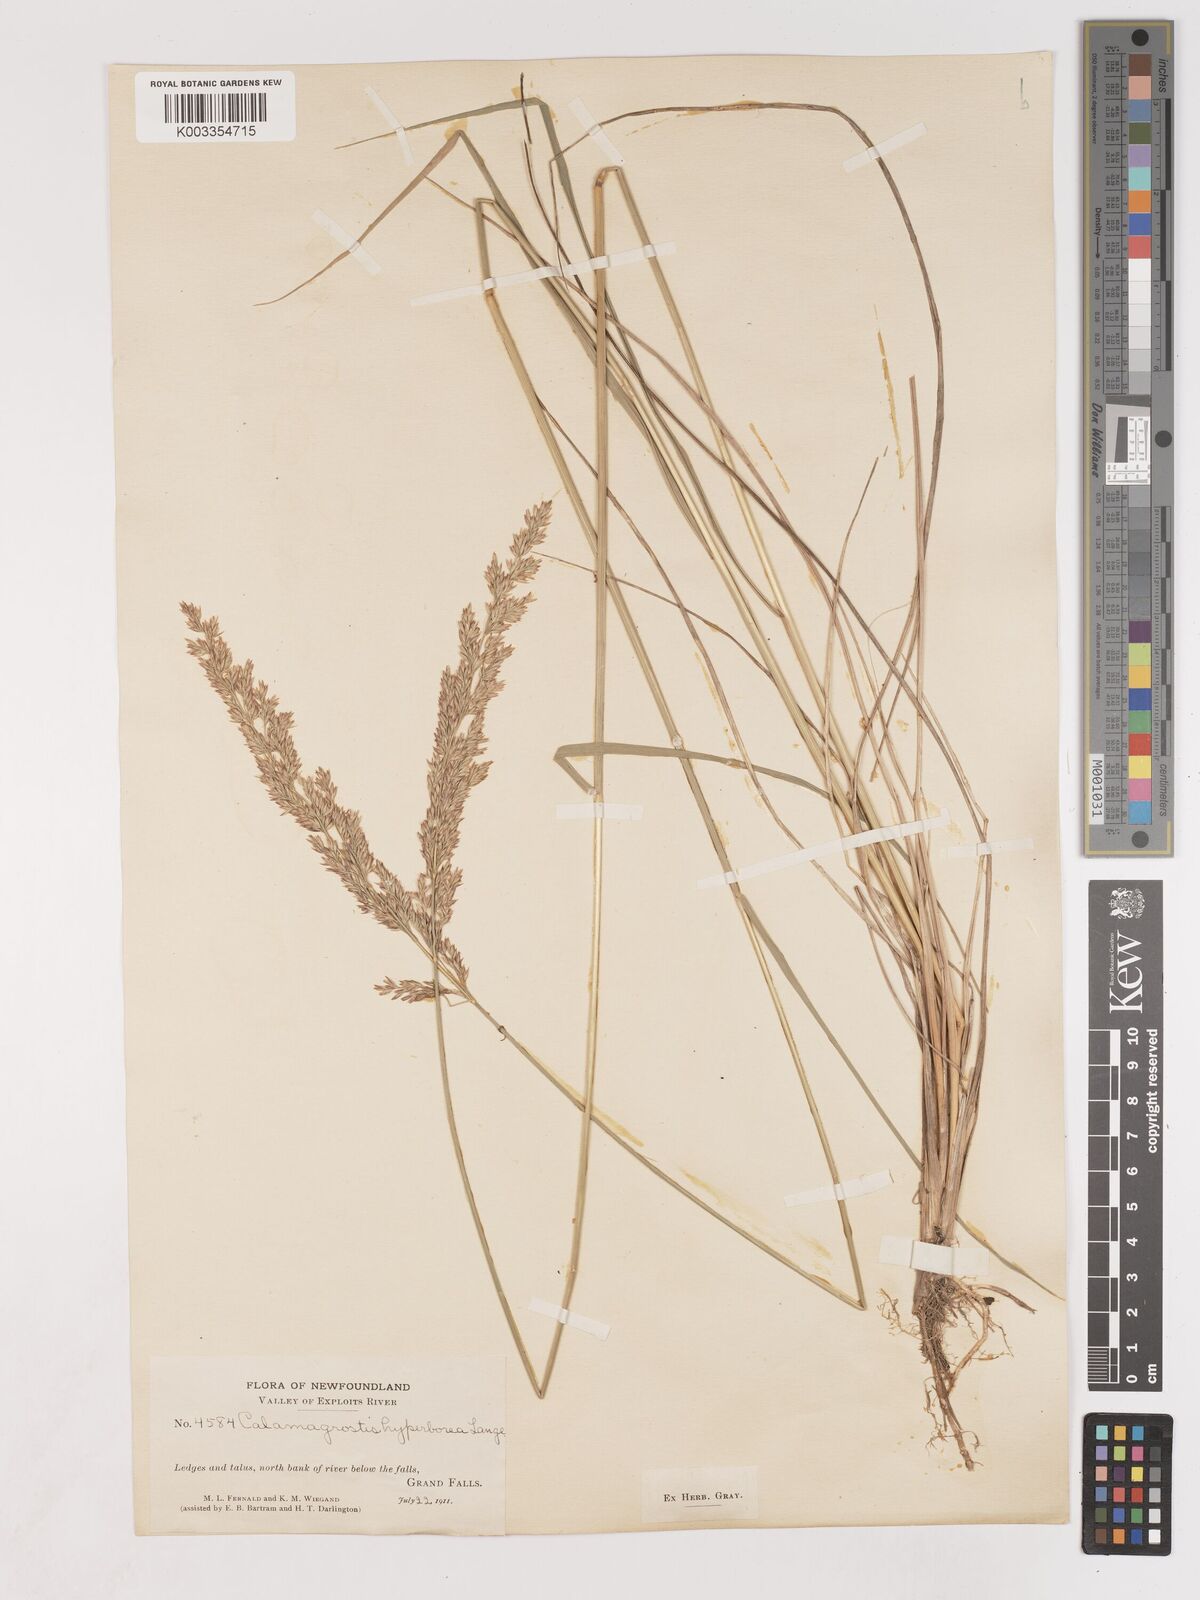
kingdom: Plantae
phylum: Tracheophyta
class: Liliopsida
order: Poales
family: Poaceae
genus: Cinnagrostis
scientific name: Cinnagrostis recta
